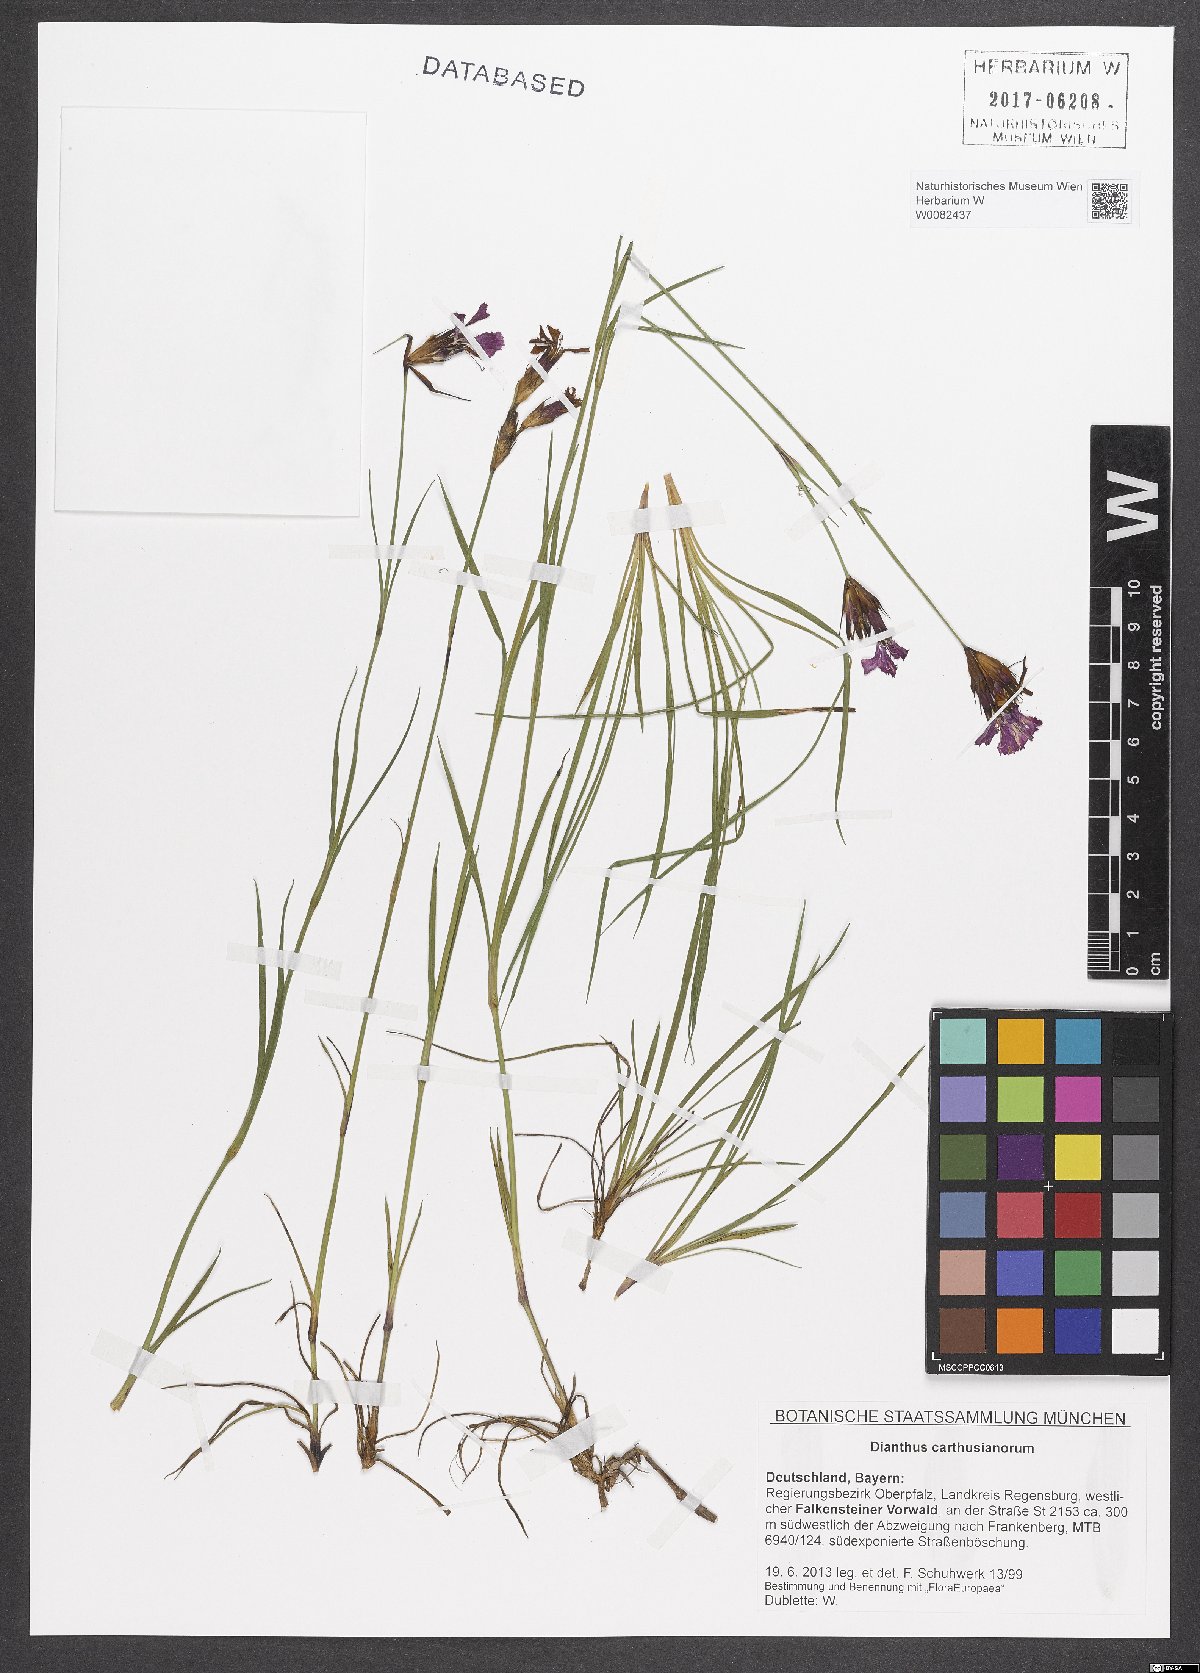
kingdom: Plantae
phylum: Tracheophyta
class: Magnoliopsida
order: Caryophyllales
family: Caryophyllaceae
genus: Dianthus
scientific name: Dianthus carthusianorum
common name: Carthusian pink
